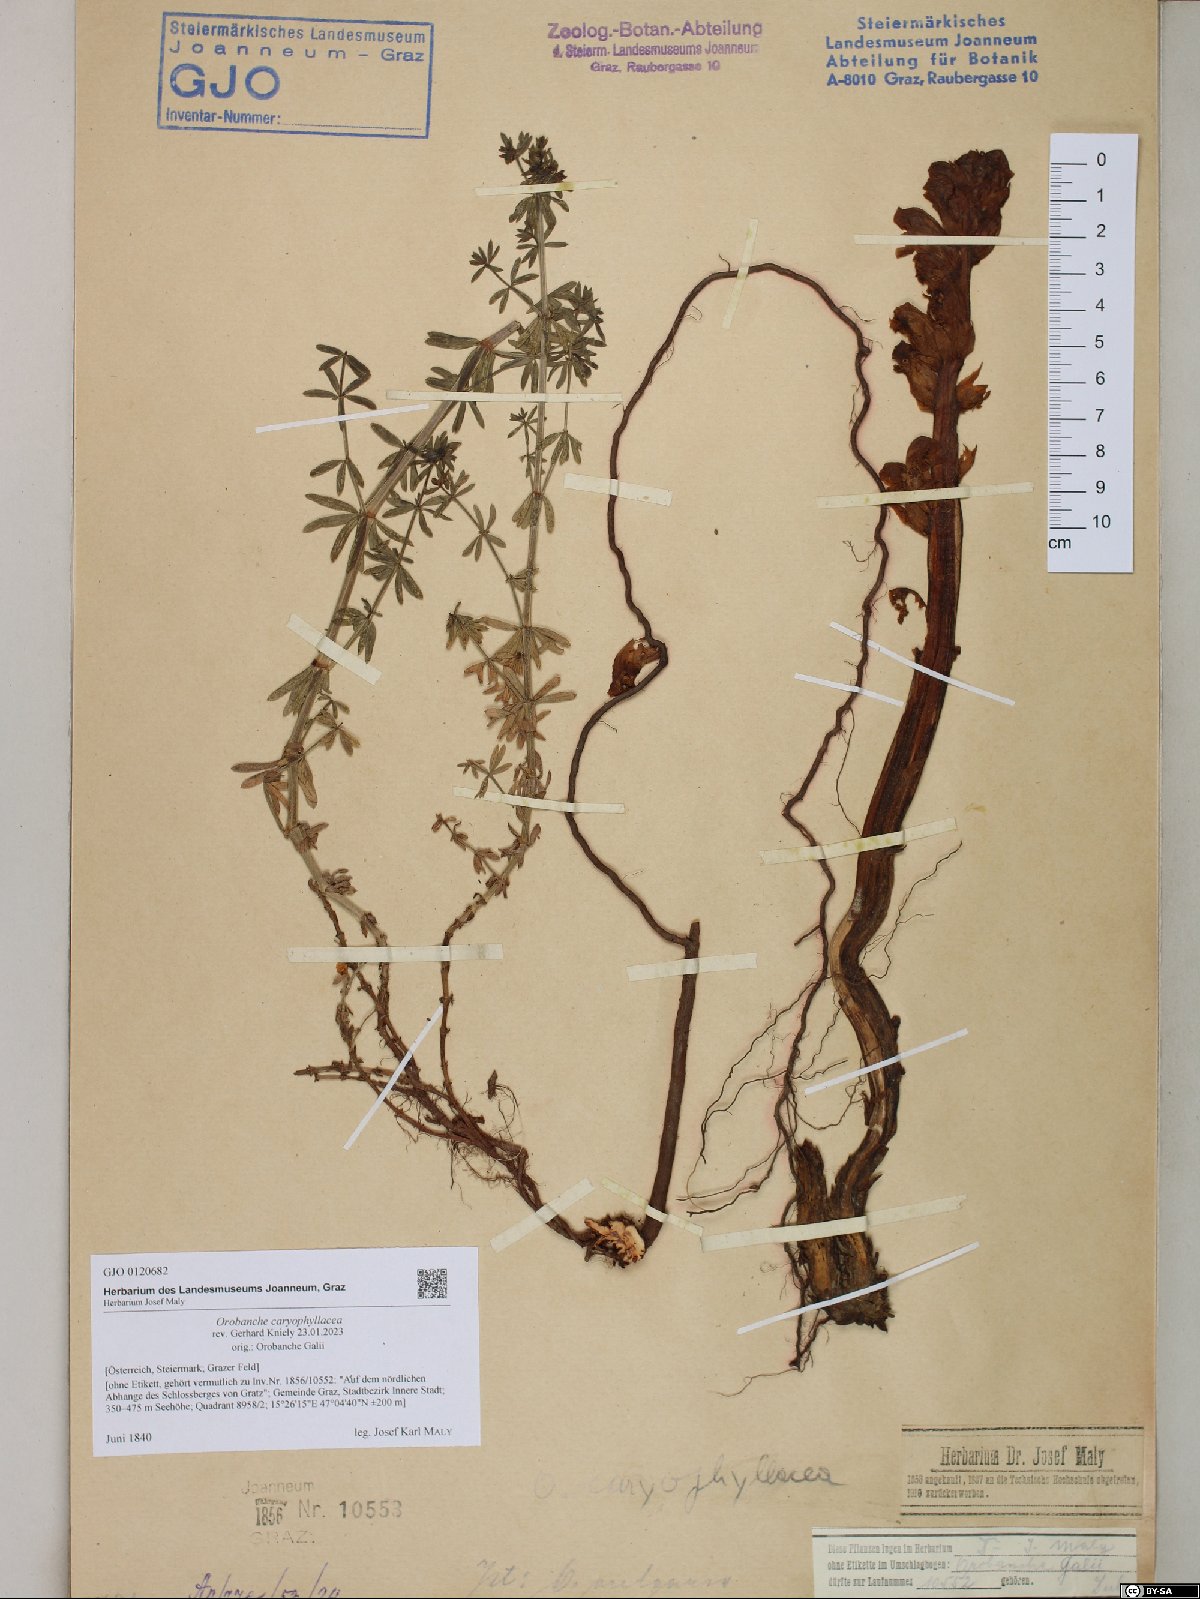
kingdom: Plantae
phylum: Tracheophyta
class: Magnoliopsida
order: Lamiales
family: Orobanchaceae
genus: Orobanche
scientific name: Orobanche caryophyllacea
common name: Bedstraw broomrape
